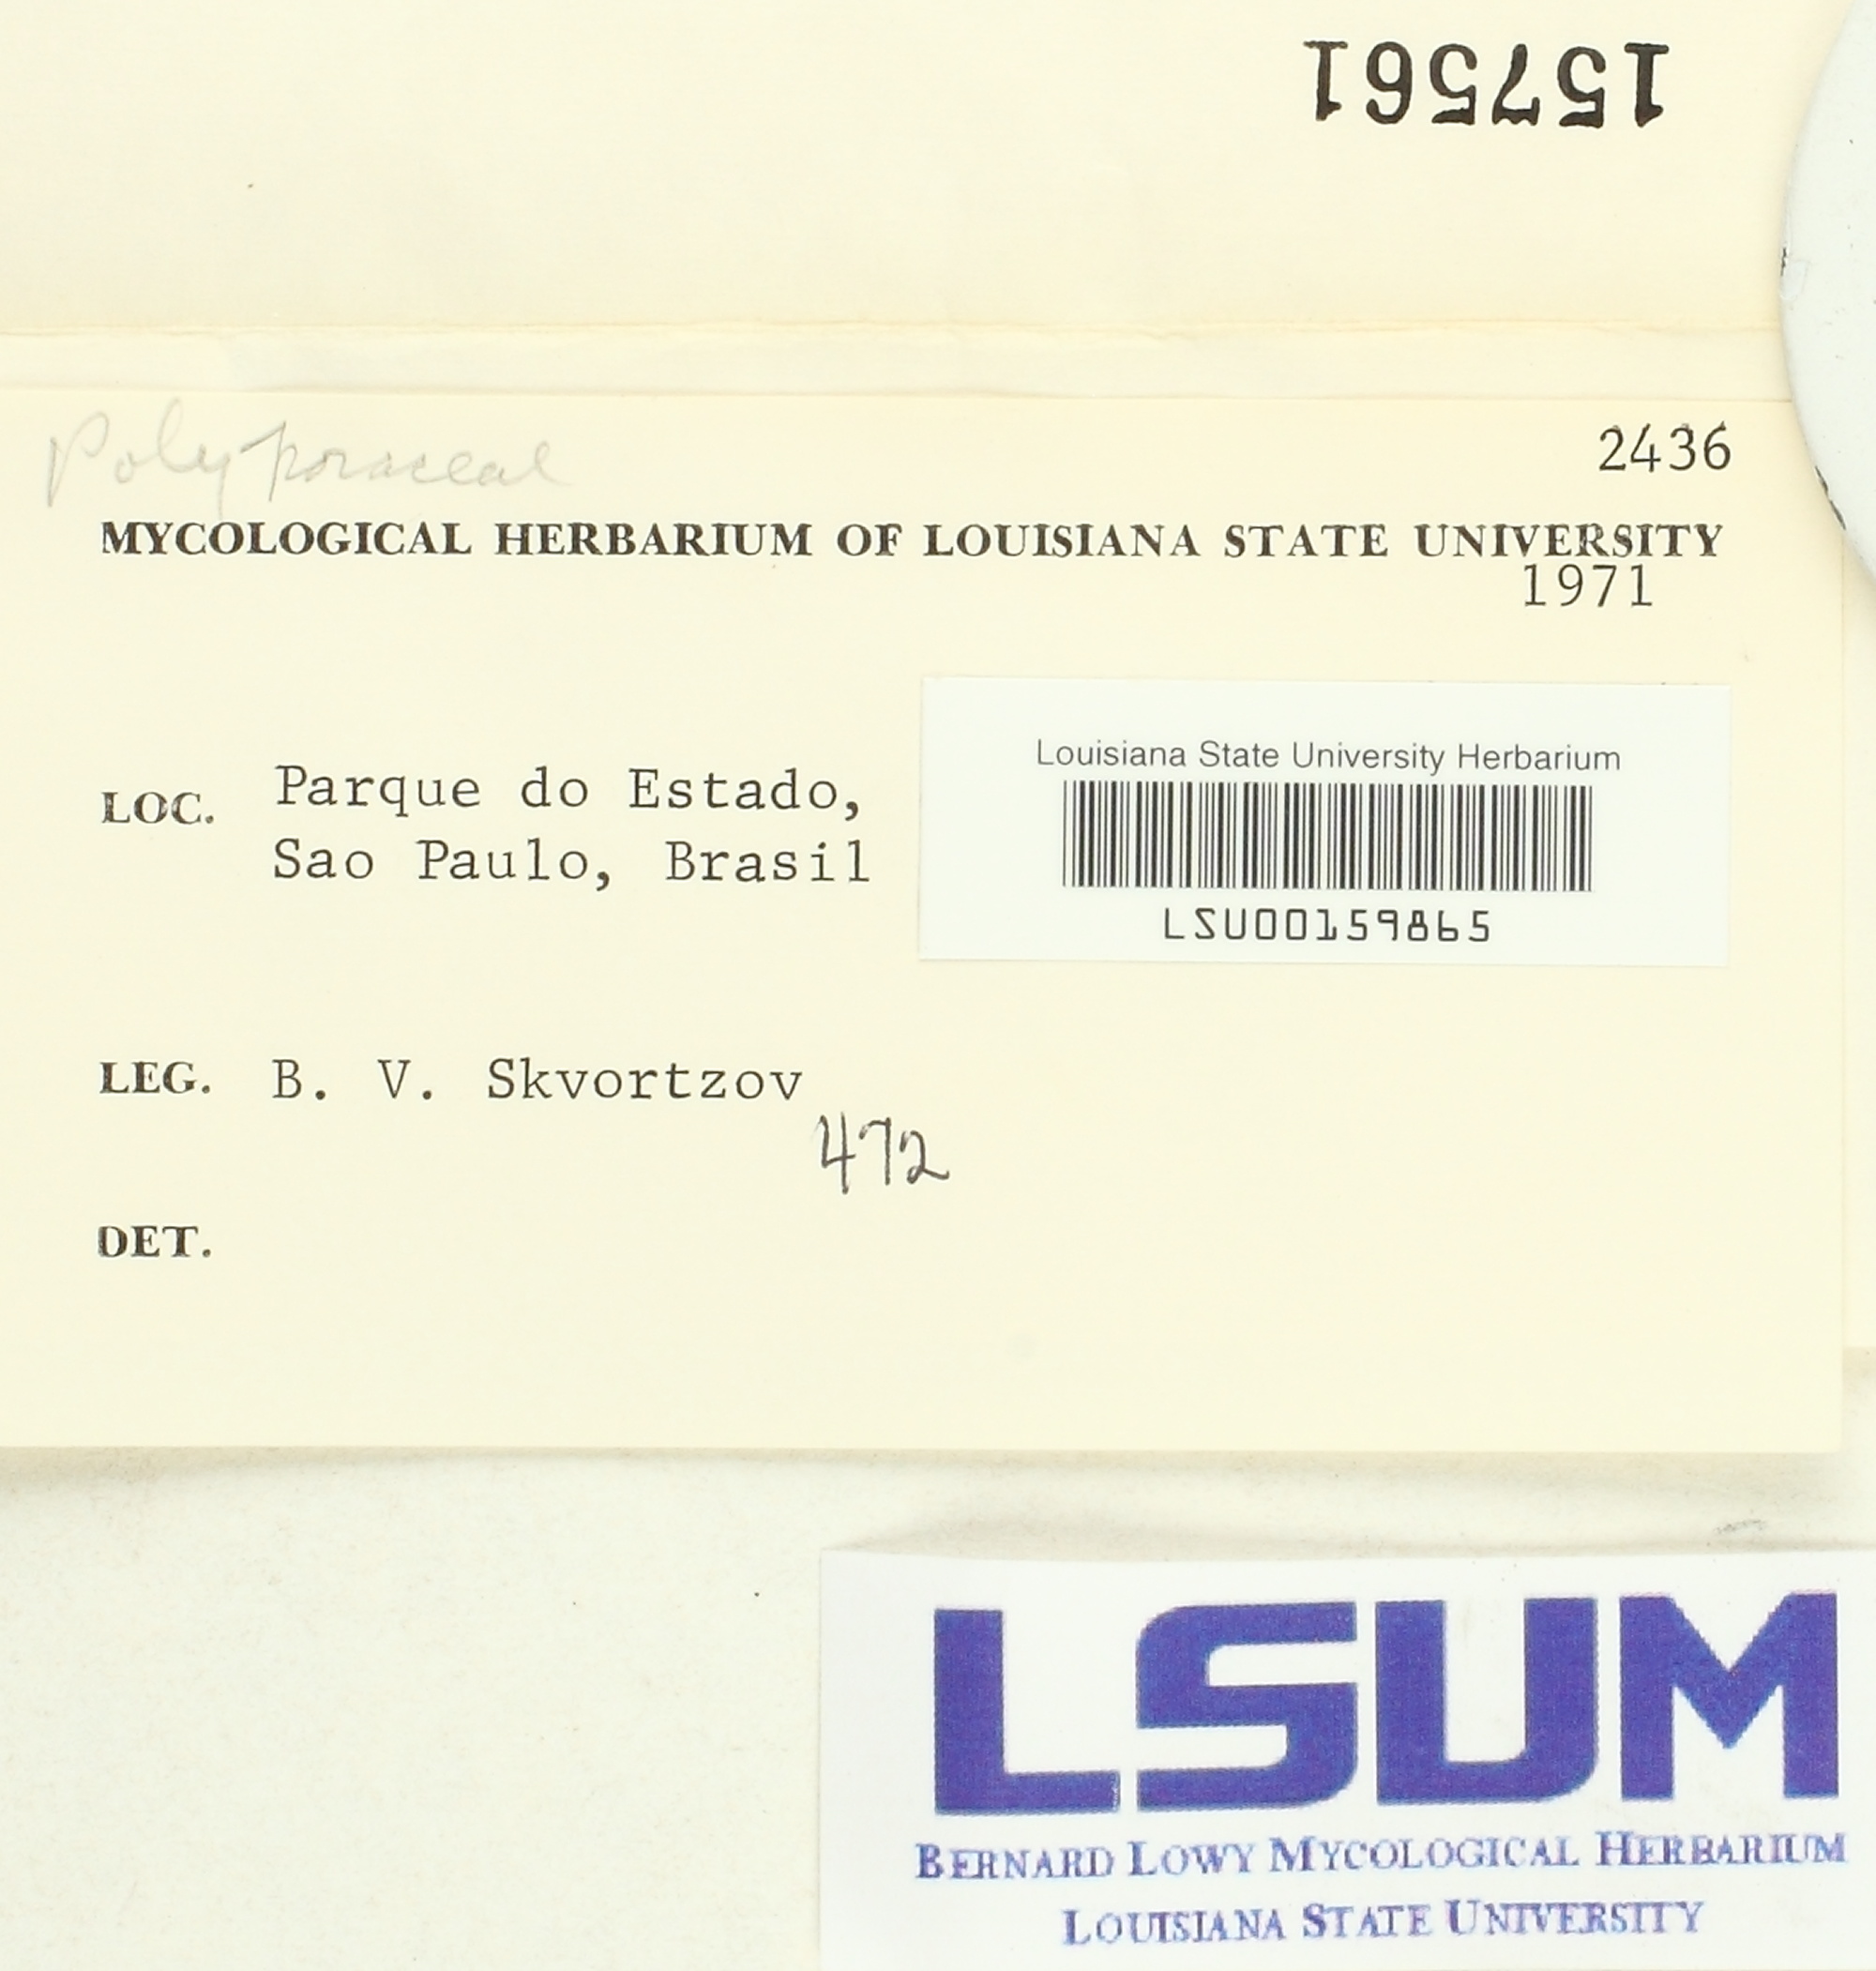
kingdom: Fungi
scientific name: Fungi
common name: Fungi
